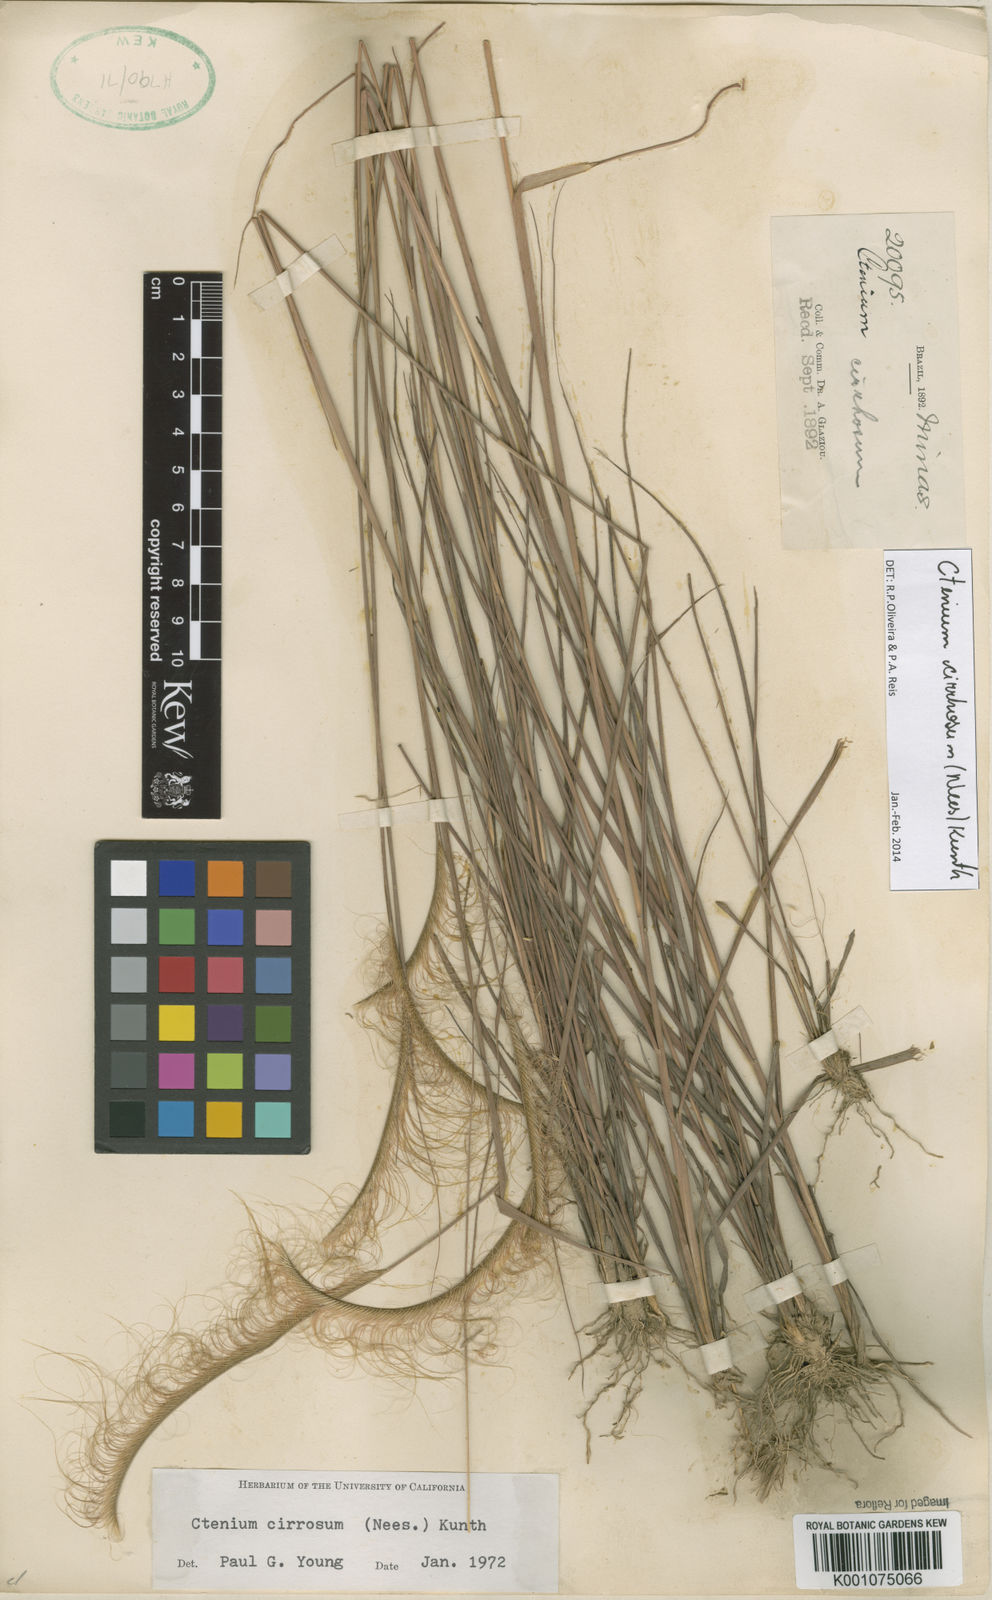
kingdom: Plantae
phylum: Tracheophyta
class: Liliopsida
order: Poales
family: Poaceae
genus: Ctenium
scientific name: Ctenium cirrhosum
